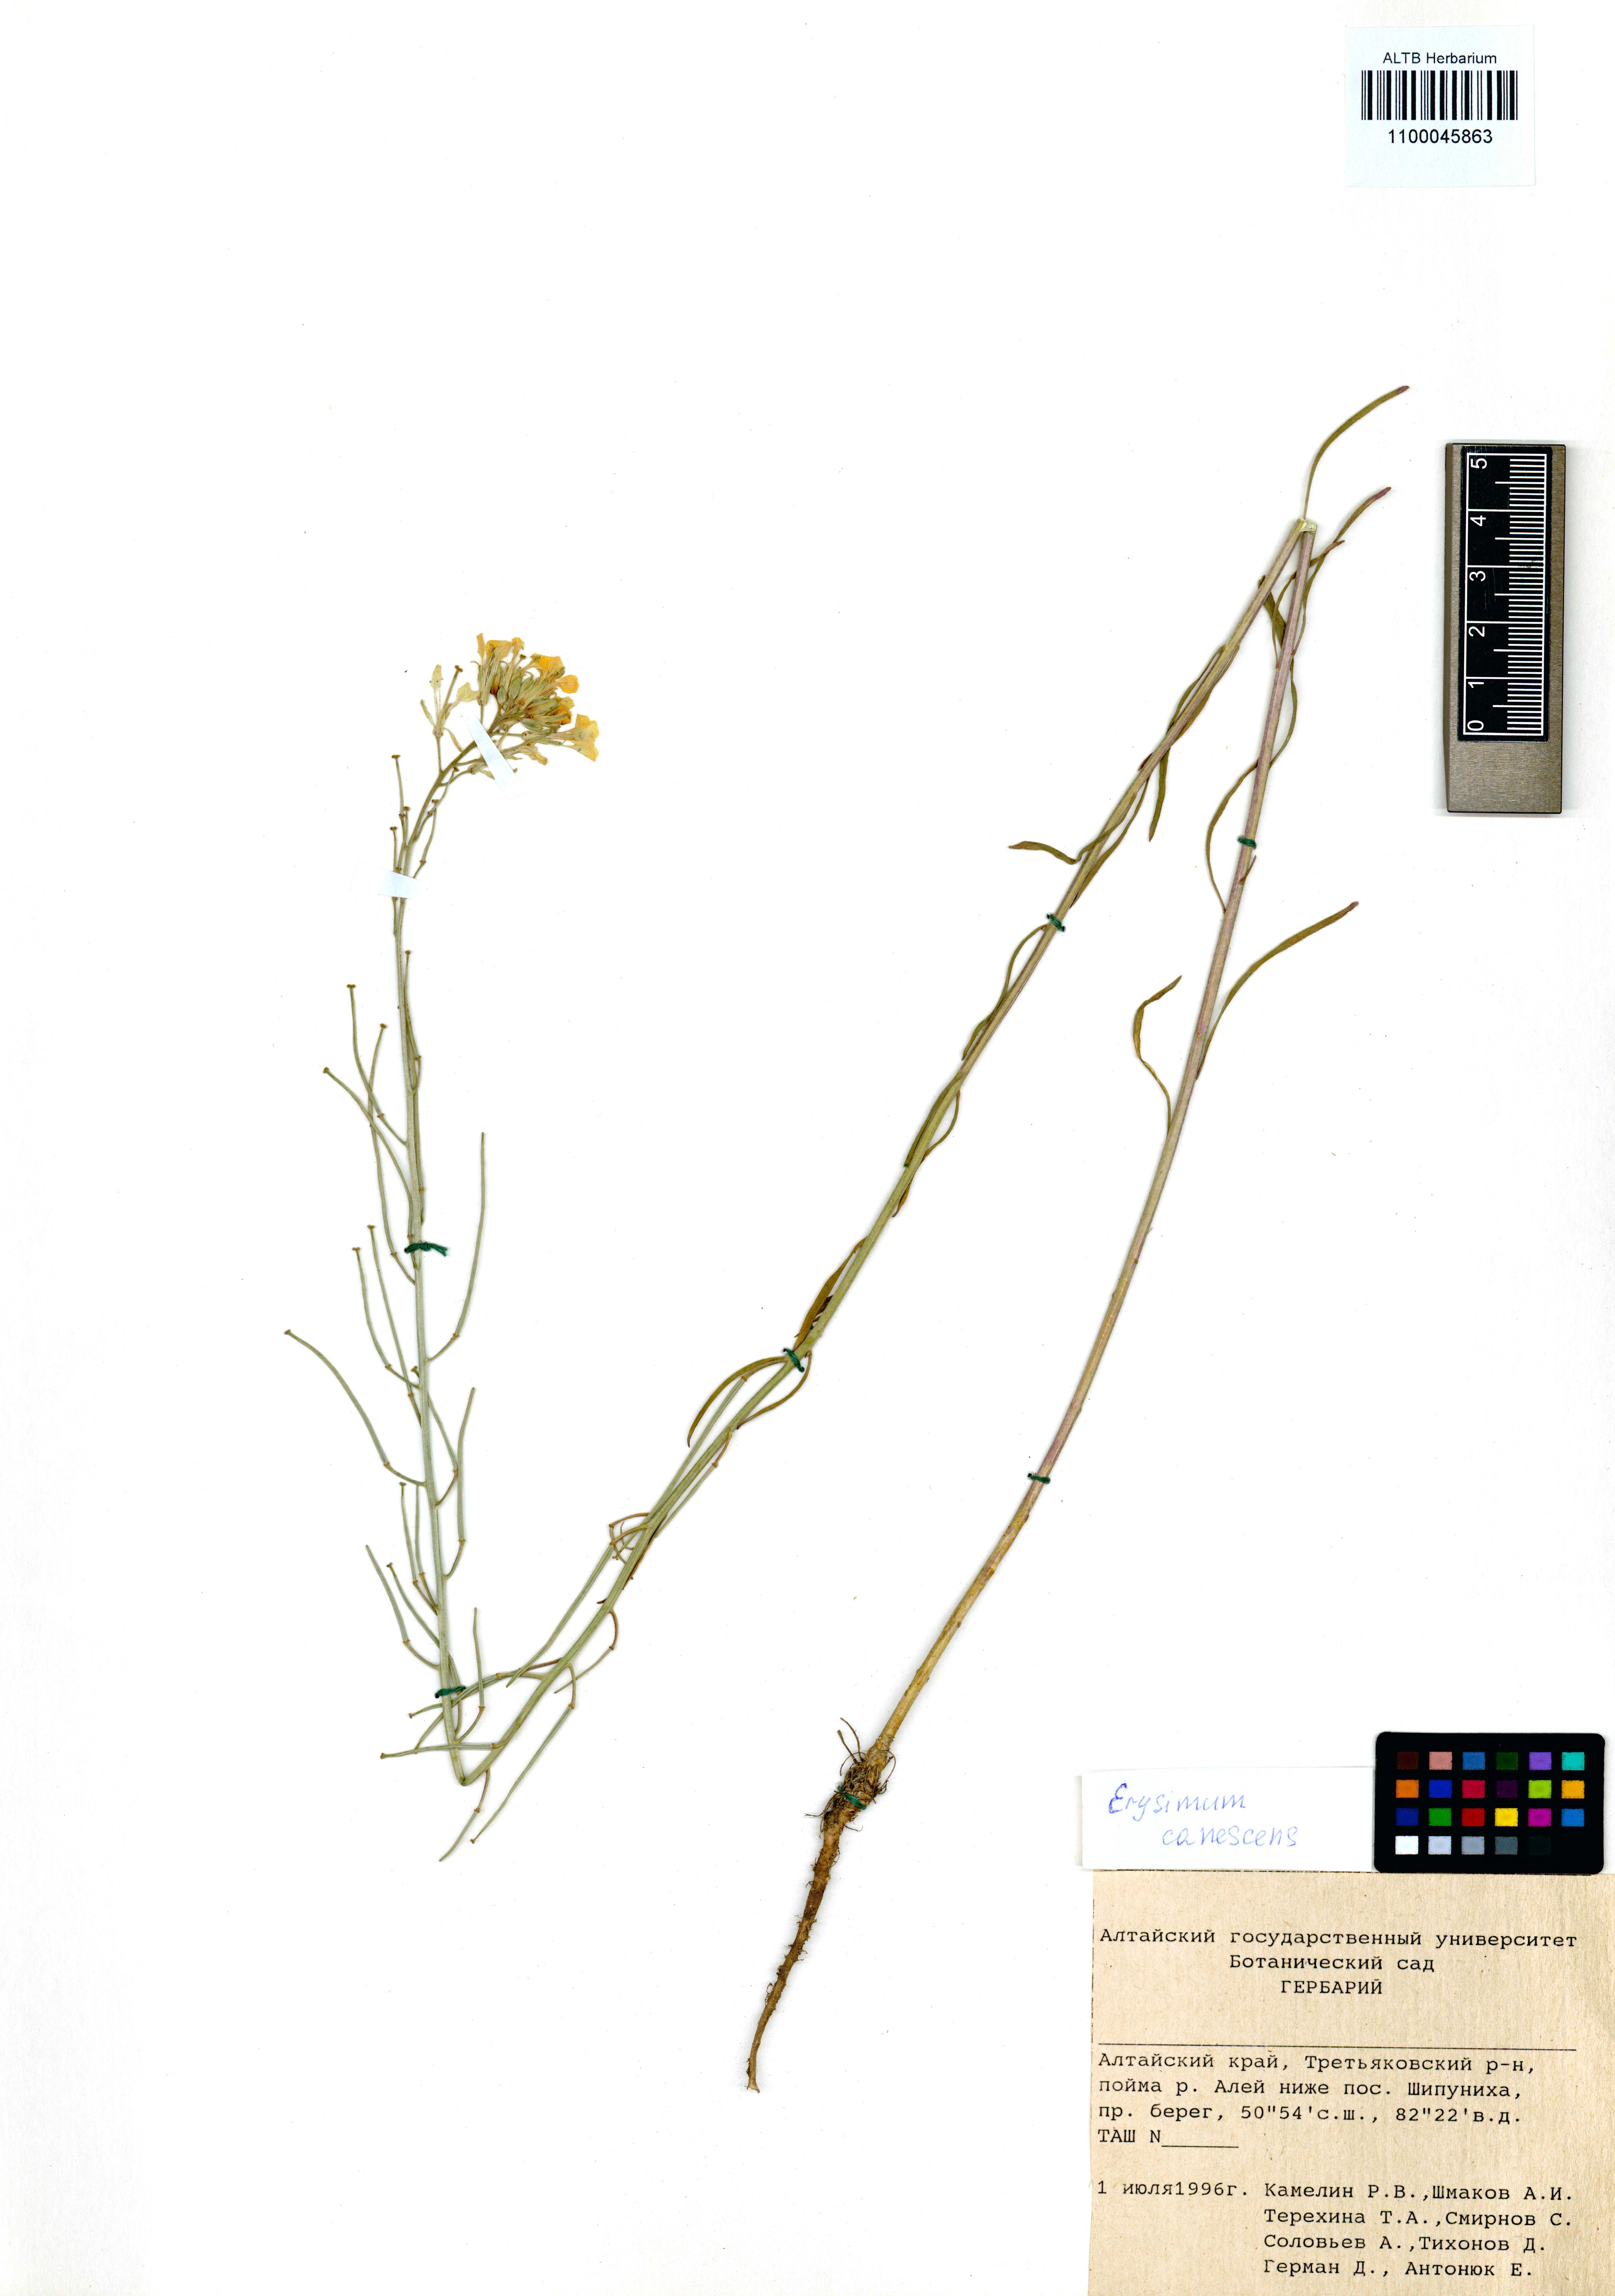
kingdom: Plantae
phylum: Tracheophyta
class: Magnoliopsida
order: Brassicales
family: Brassicaceae
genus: Erysimum
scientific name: Erysimum canescens
